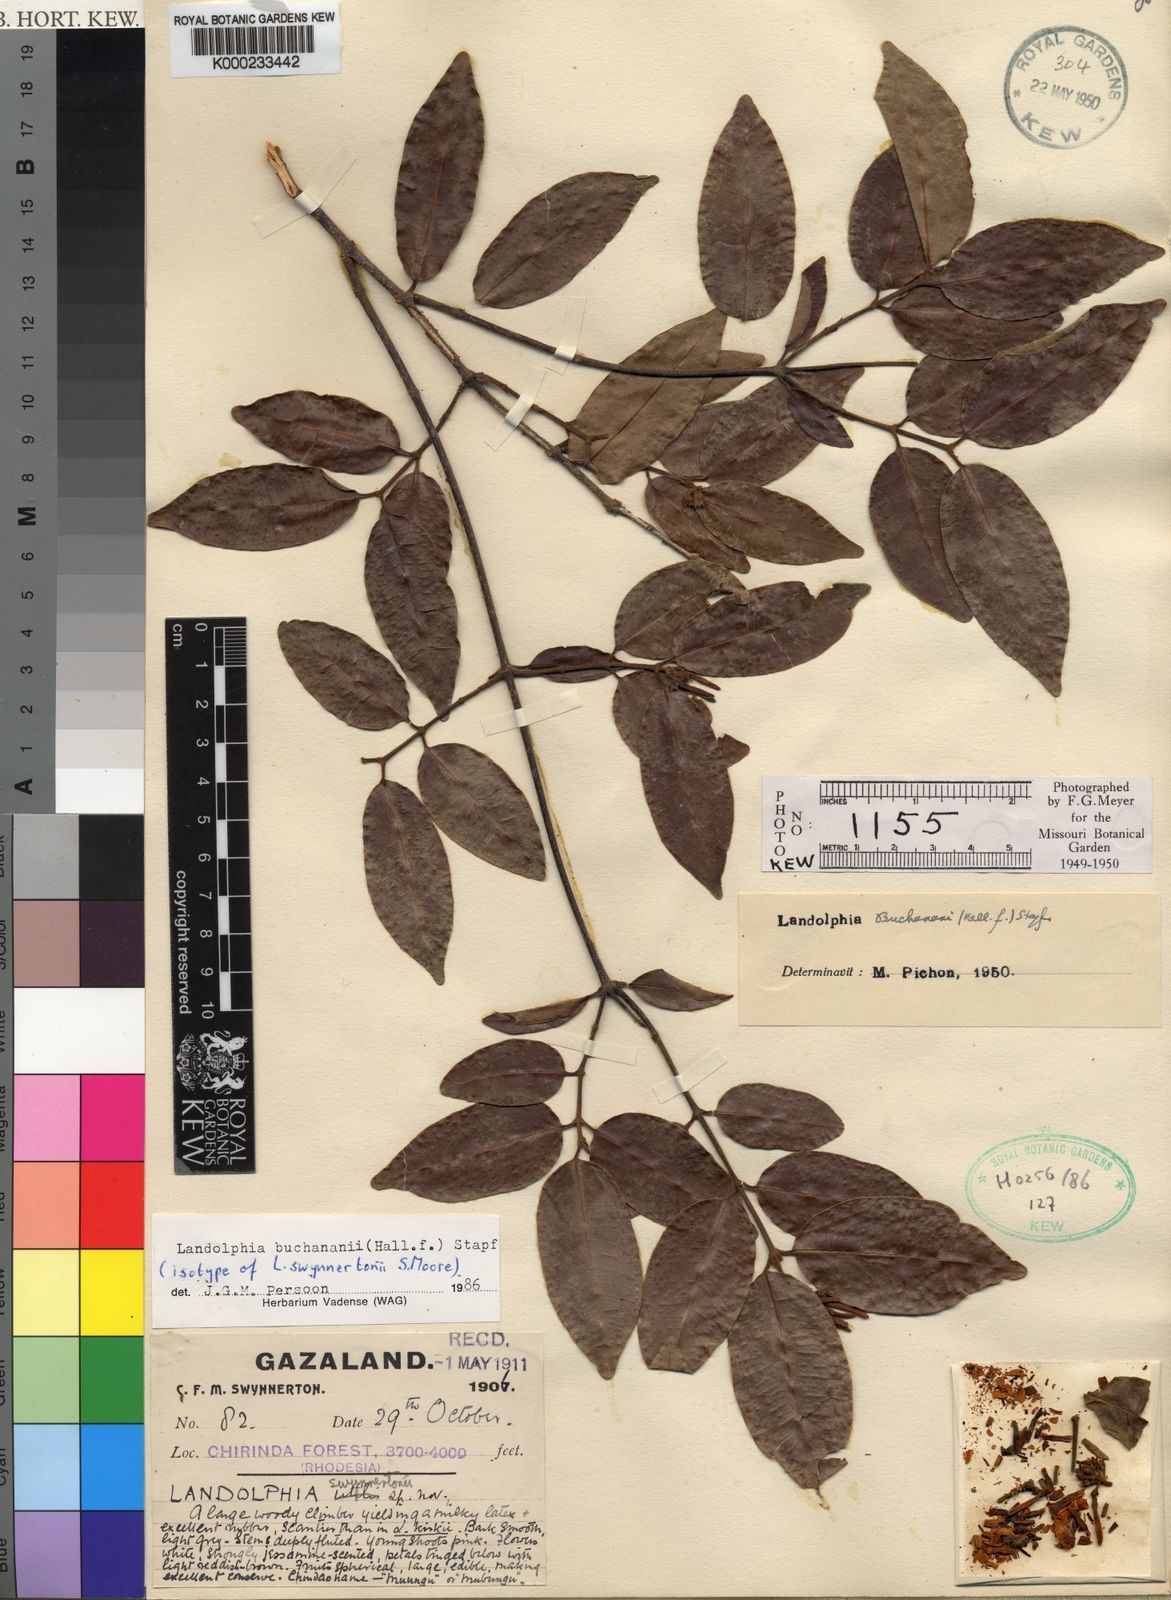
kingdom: Plantae
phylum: Tracheophyta
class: Magnoliopsida
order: Gentianales
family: Apocynaceae
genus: Landolphia
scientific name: Landolphia buchananii
